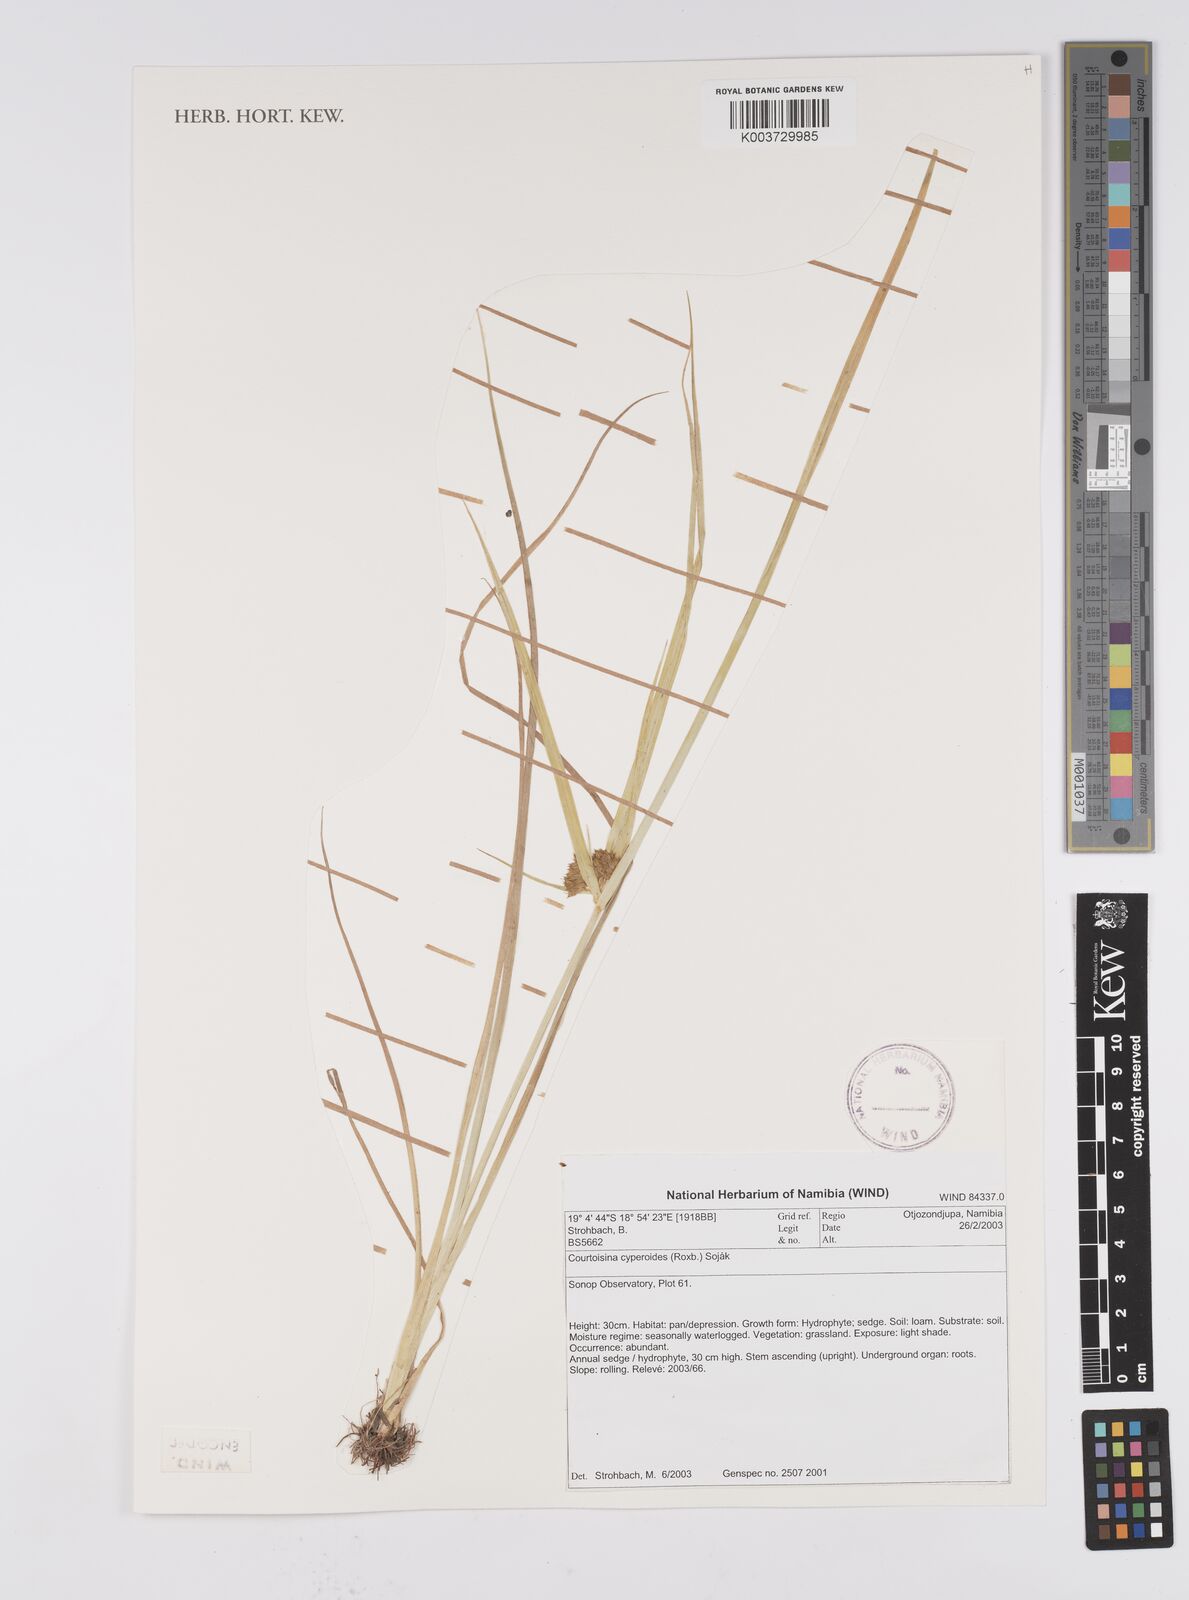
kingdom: Plantae
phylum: Tracheophyta
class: Liliopsida
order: Poales
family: Cyperaceae
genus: Cyperus
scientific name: Cyperus cyperoides
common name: Pacific island flat sedge
